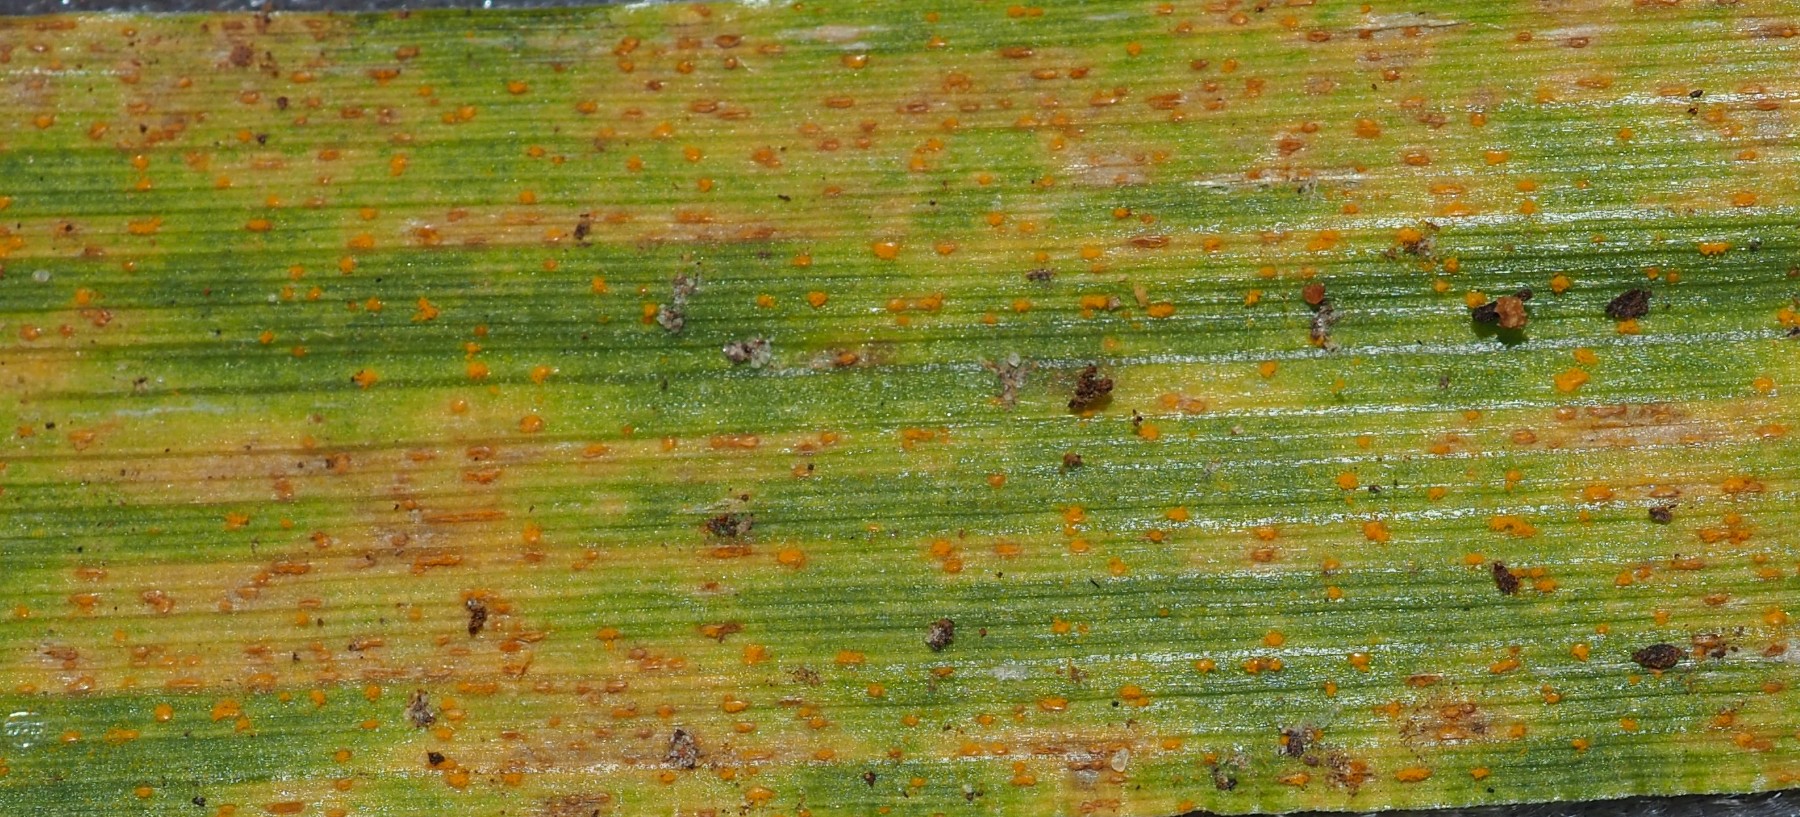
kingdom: Fungi
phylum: Basidiomycota
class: Pucciniomycetes
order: Pucciniales
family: Pucciniaceae
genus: Puccinia
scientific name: Puccinia coronata
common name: Crown rust
